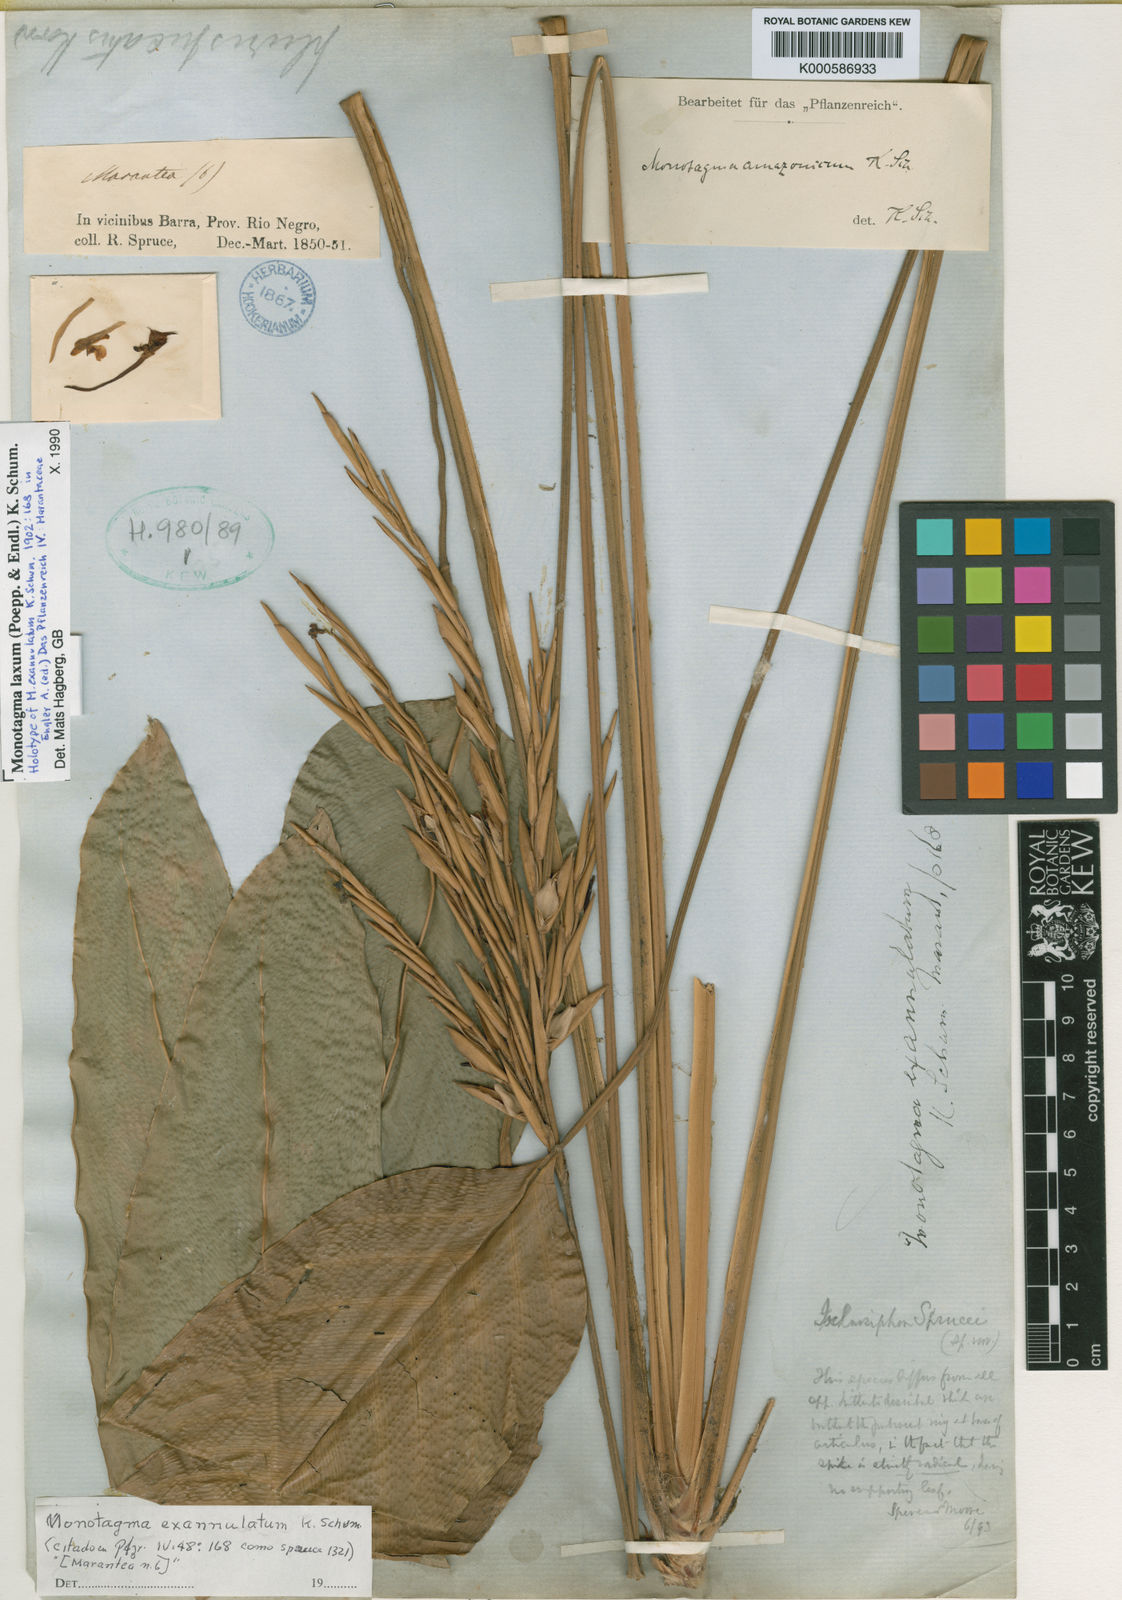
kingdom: Plantae
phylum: Tracheophyta
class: Liliopsida
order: Zingiberales
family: Marantaceae
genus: Monotagma
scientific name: Monotagma laxum
